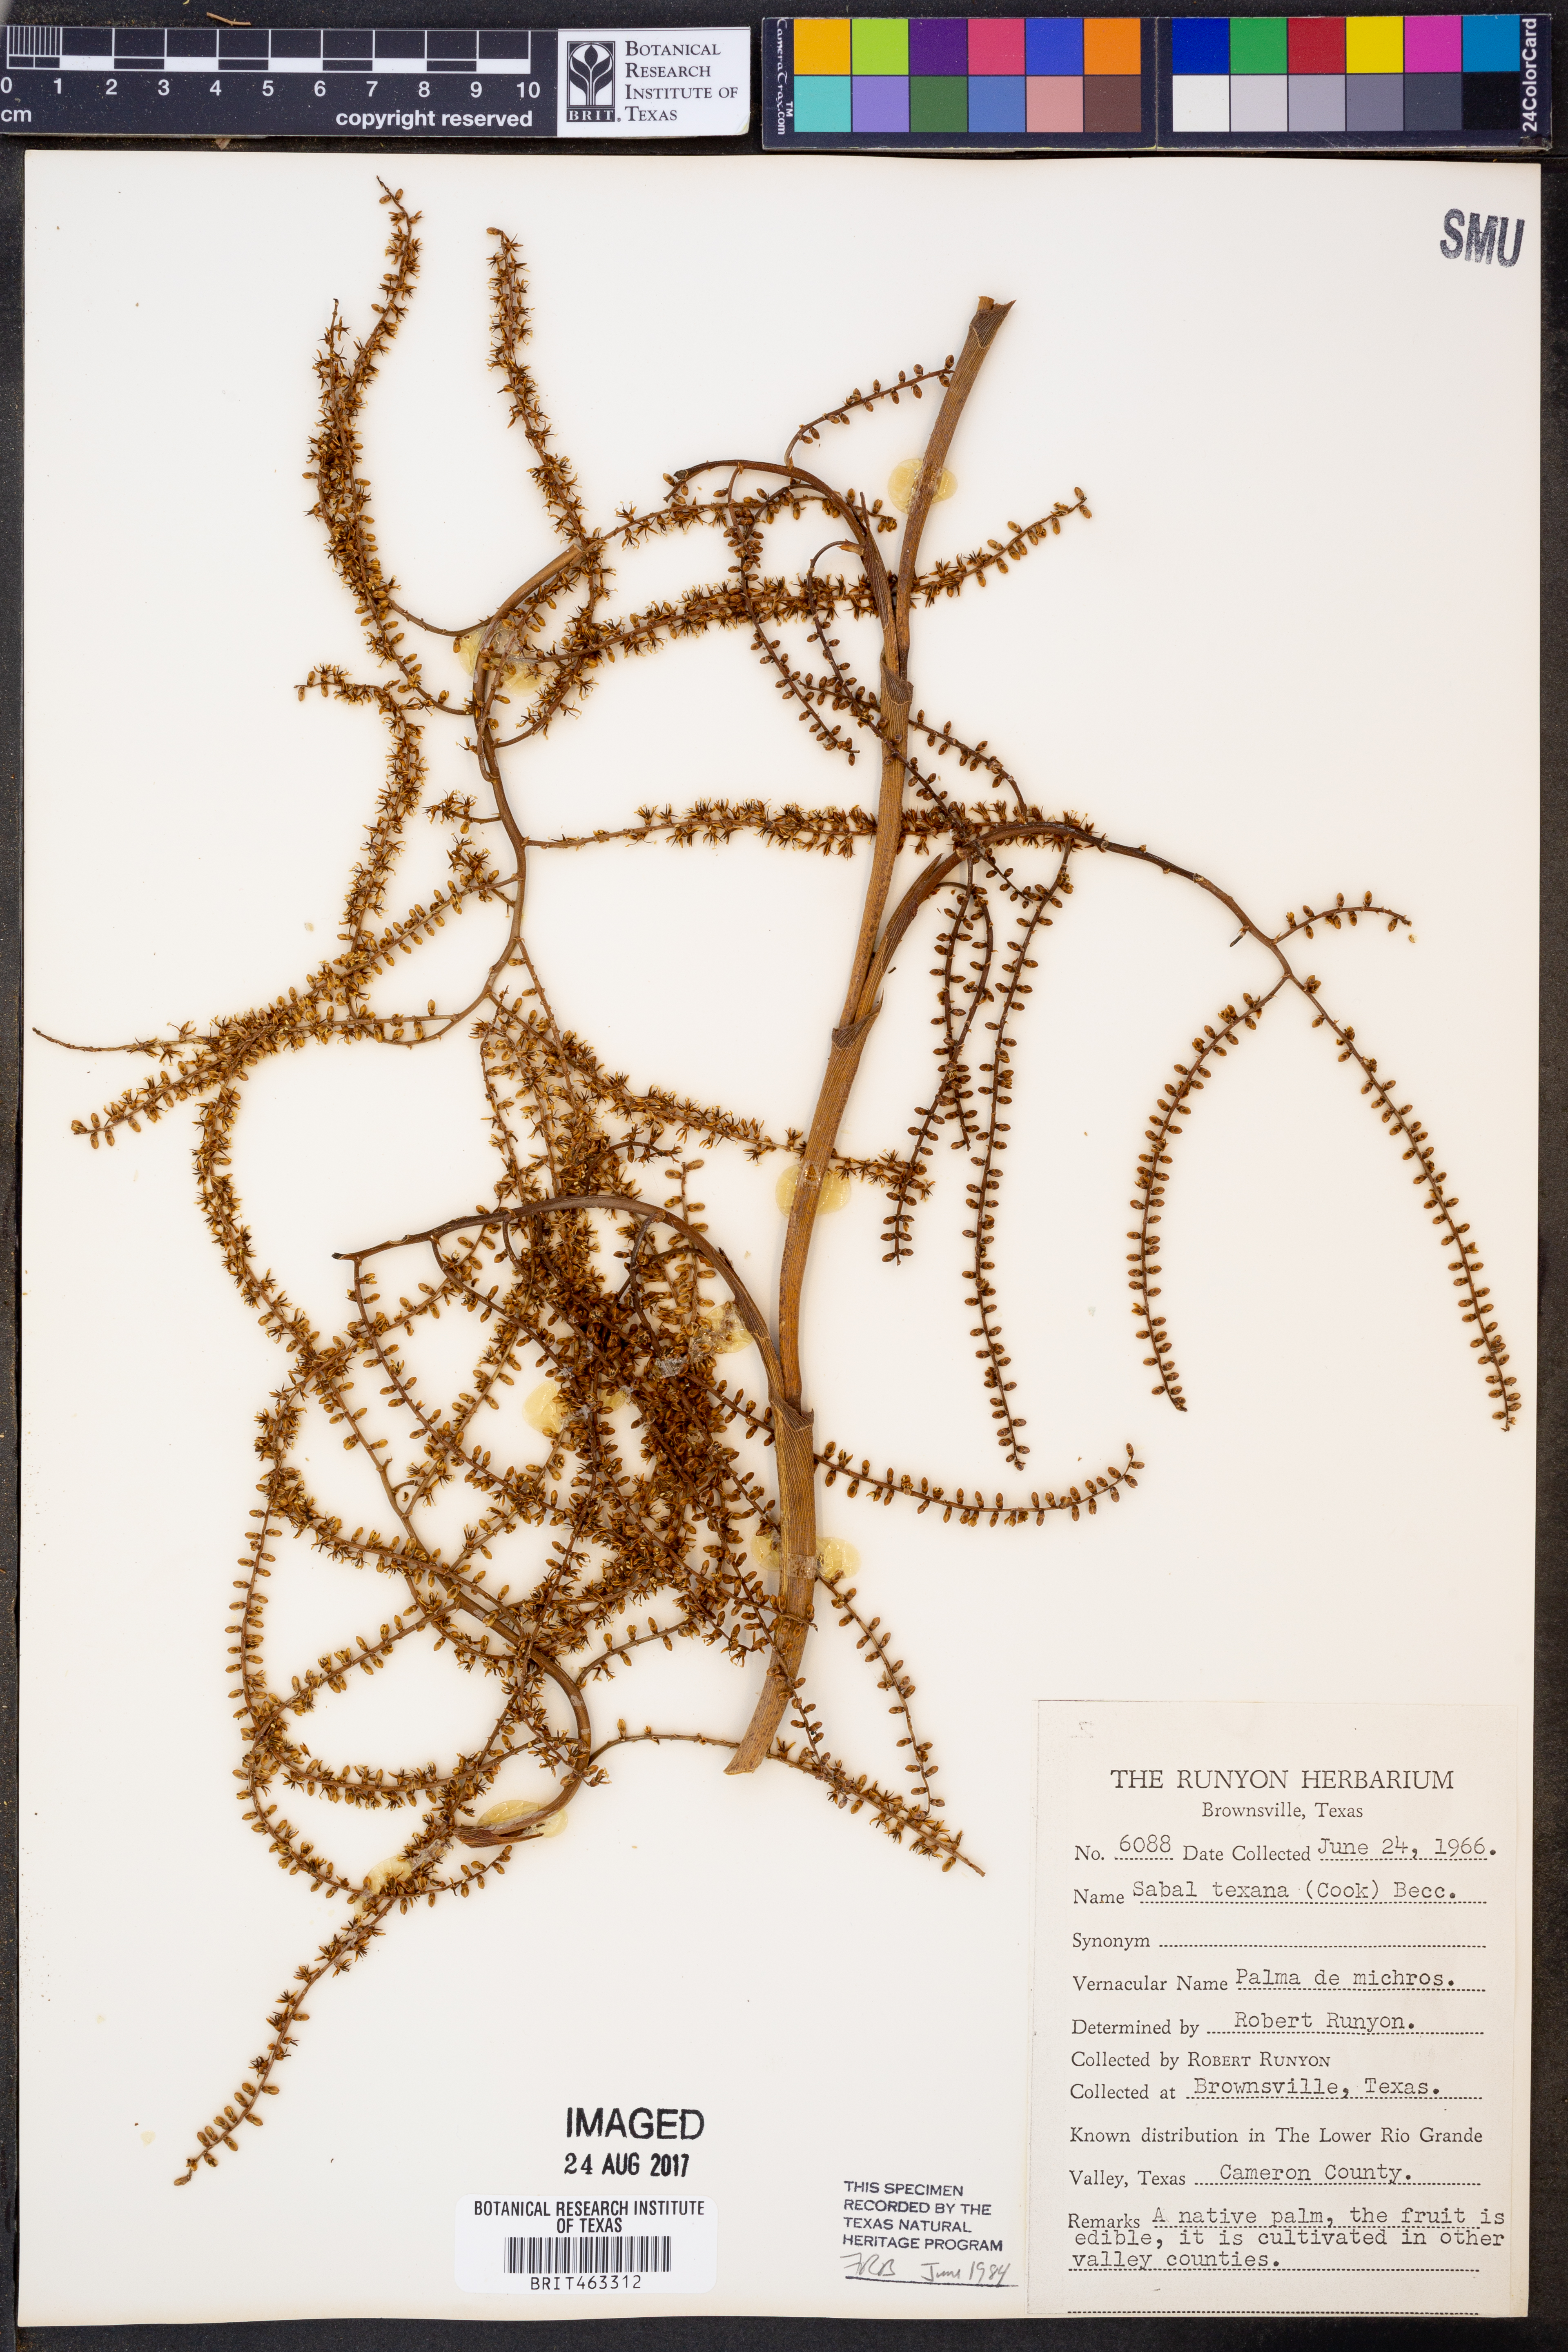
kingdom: Plantae
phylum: Tracheophyta
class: Liliopsida
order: Arecales
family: Arecaceae
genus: Sabal
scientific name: Sabal mexicana
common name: Texas palmetto
